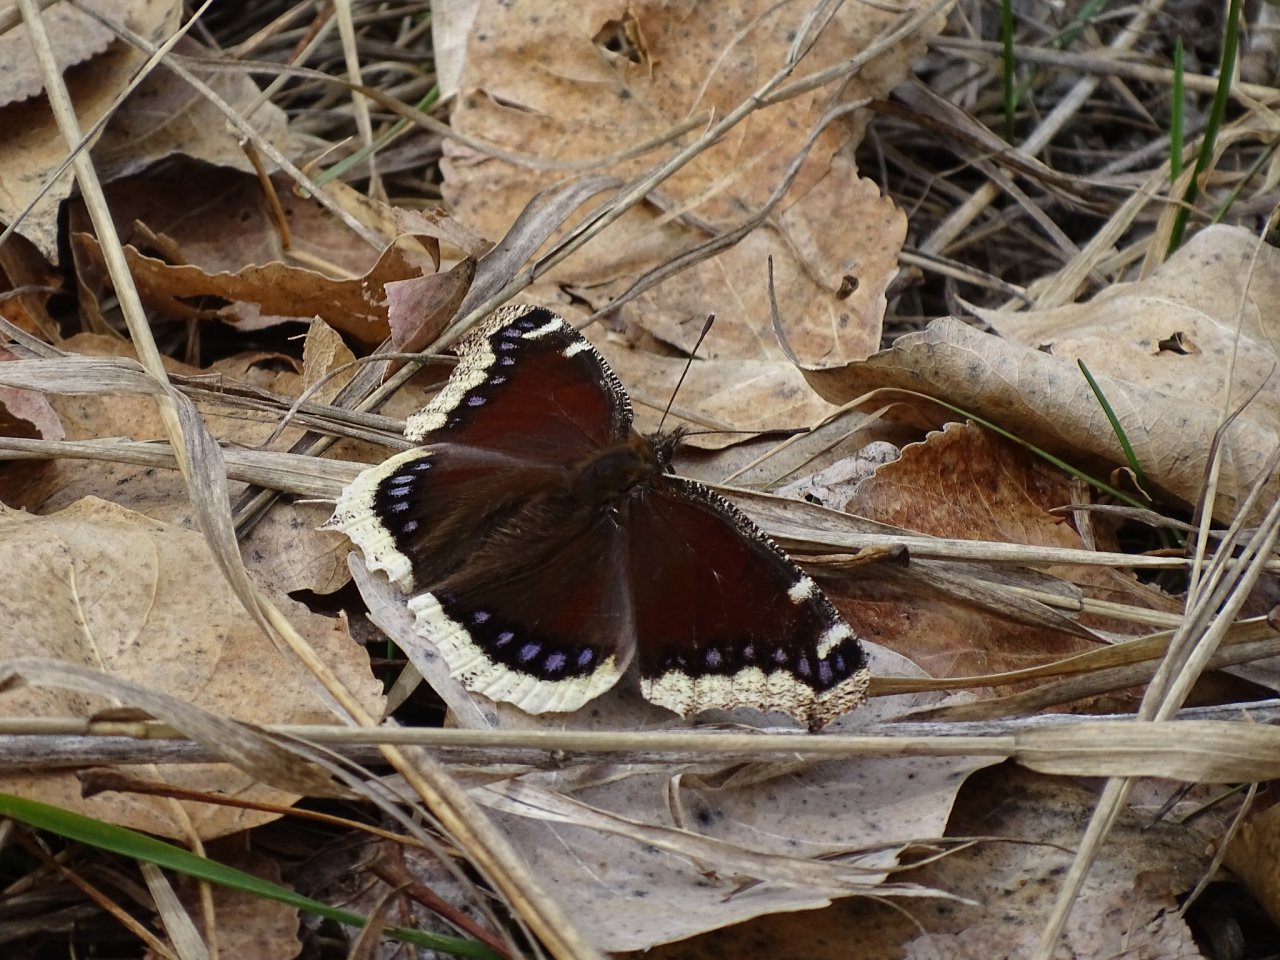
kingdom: Animalia
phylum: Arthropoda
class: Insecta
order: Lepidoptera
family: Nymphalidae
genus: Nymphalis
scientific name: Nymphalis antiopa
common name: Mourning Cloak
